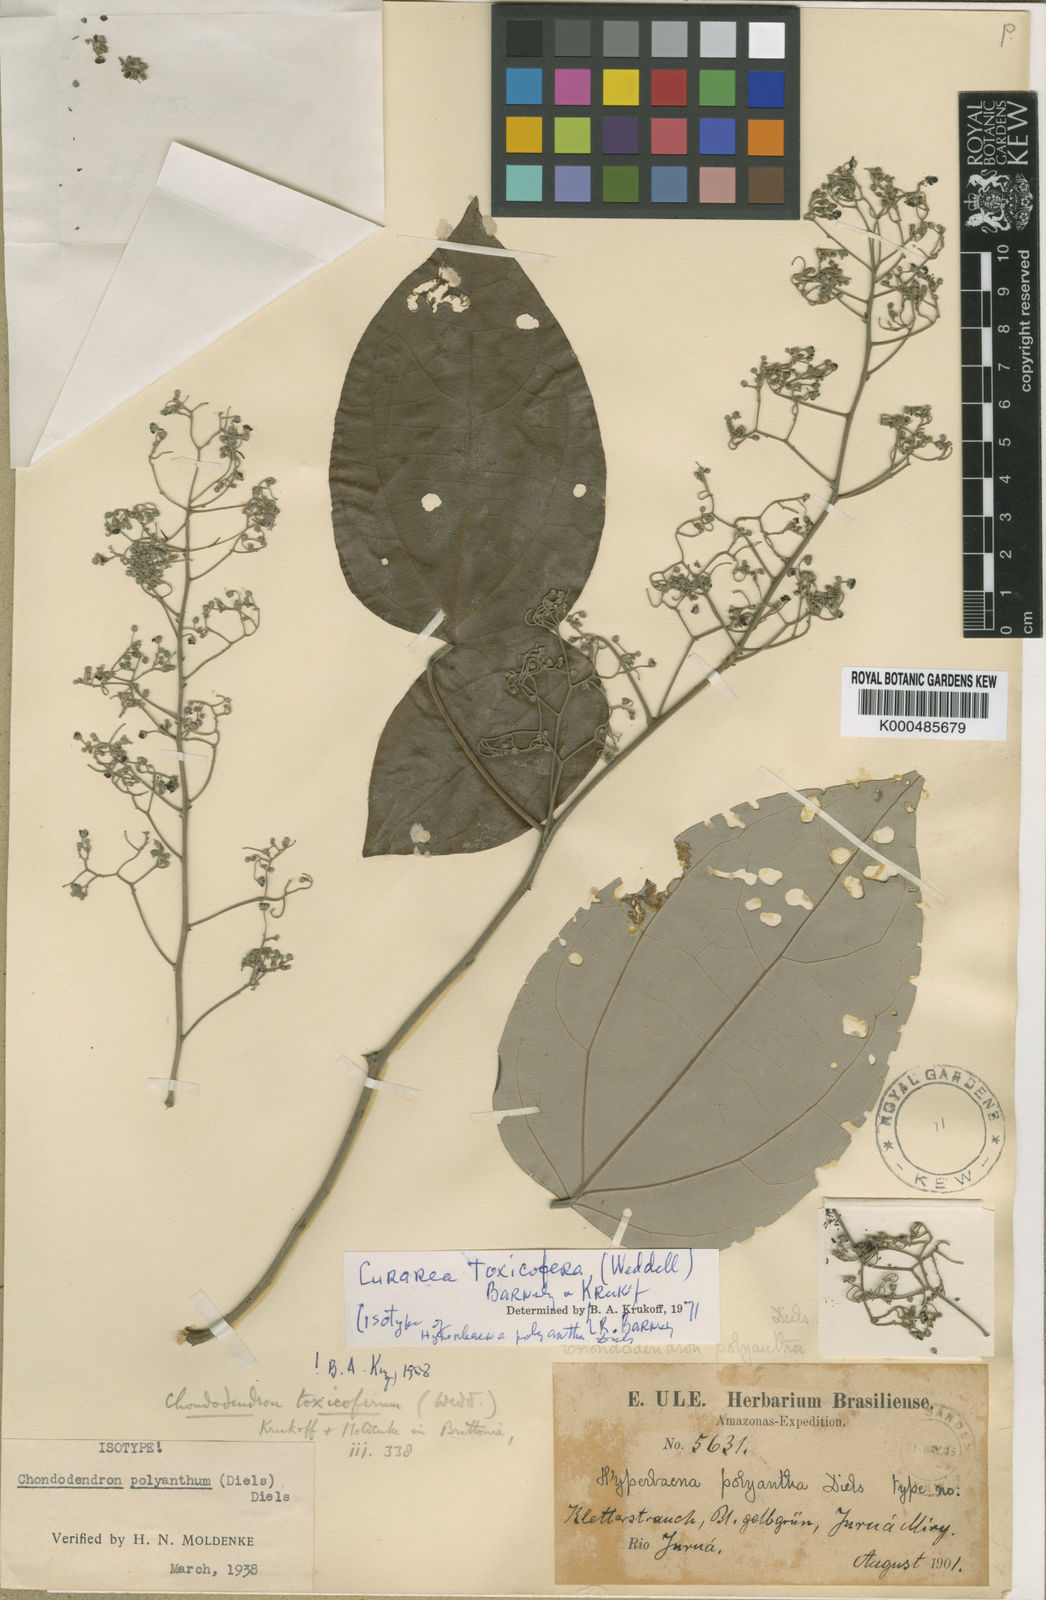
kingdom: Plantae
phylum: Tracheophyta
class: Magnoliopsida
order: Ranunculales
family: Menispermaceae
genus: Curarea
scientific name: Curarea toxicofera
